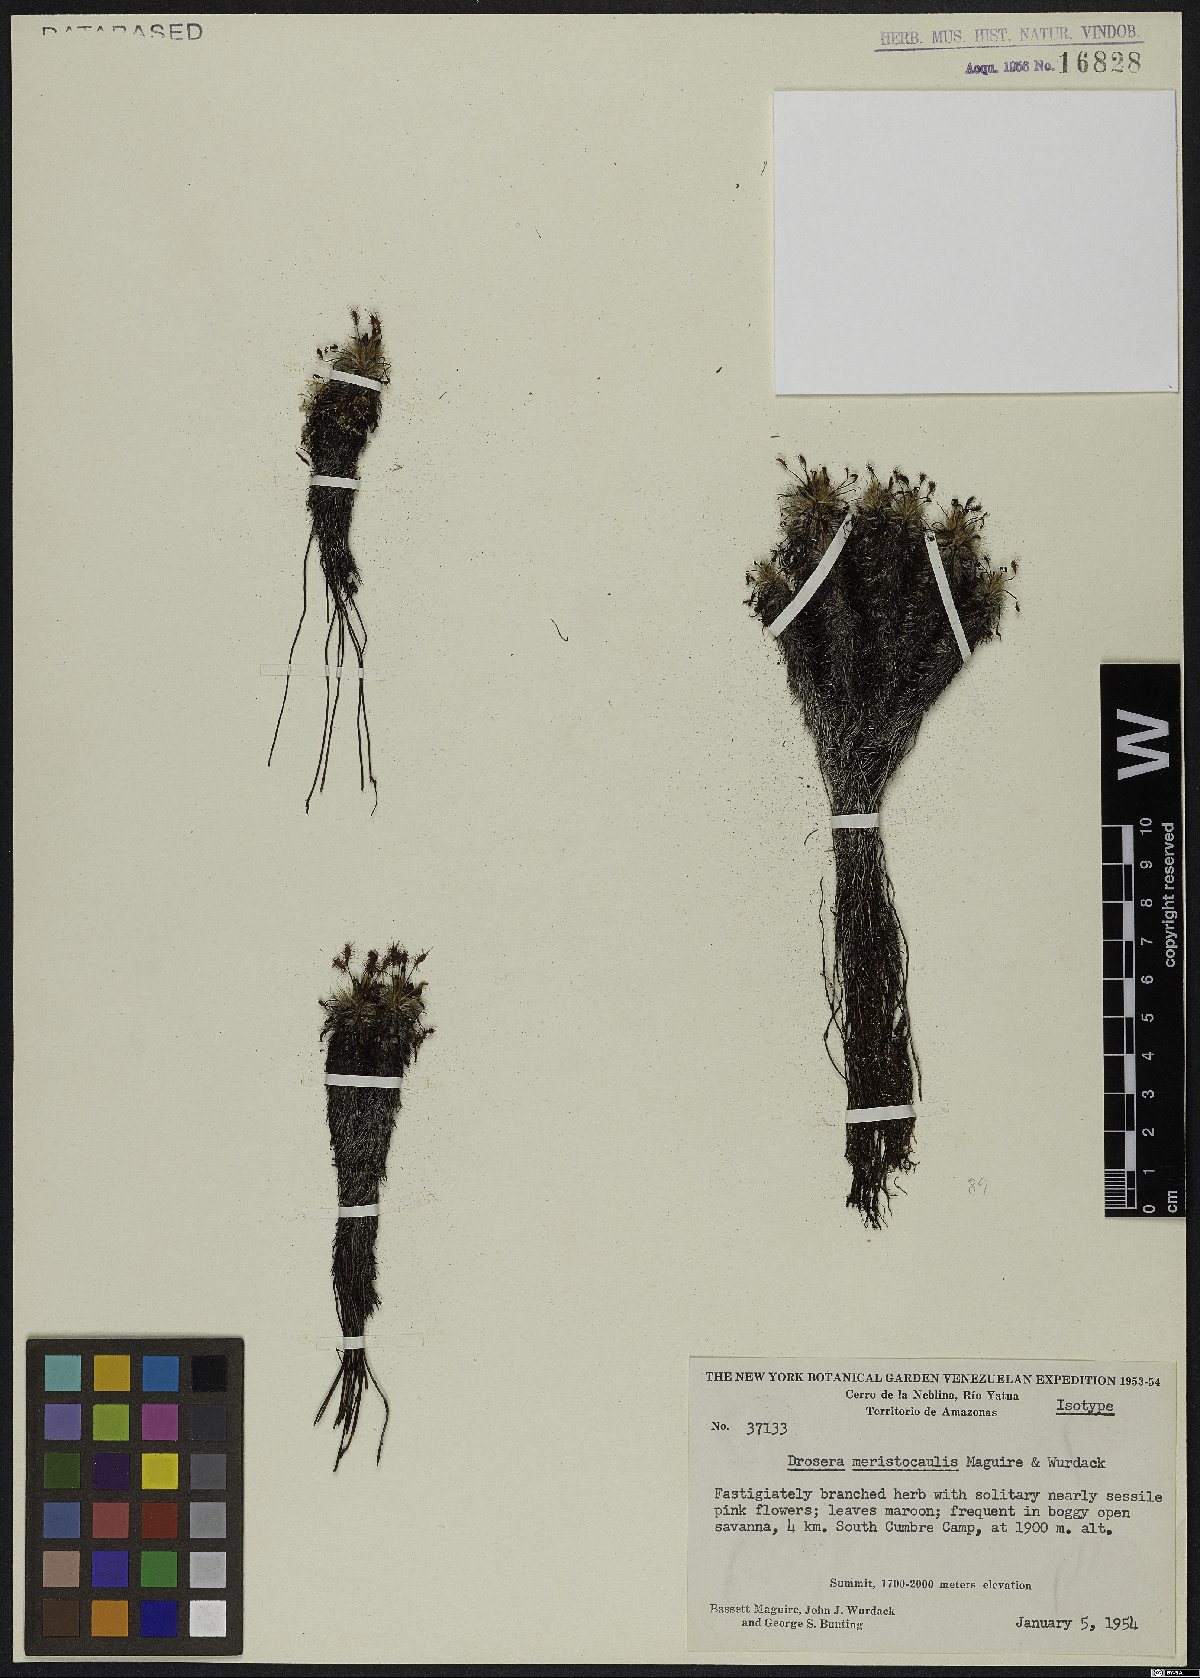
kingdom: Plantae
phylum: Tracheophyta
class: Magnoliopsida
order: Caryophyllales
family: Droseraceae
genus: Drosera
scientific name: Drosera meristocaulis
